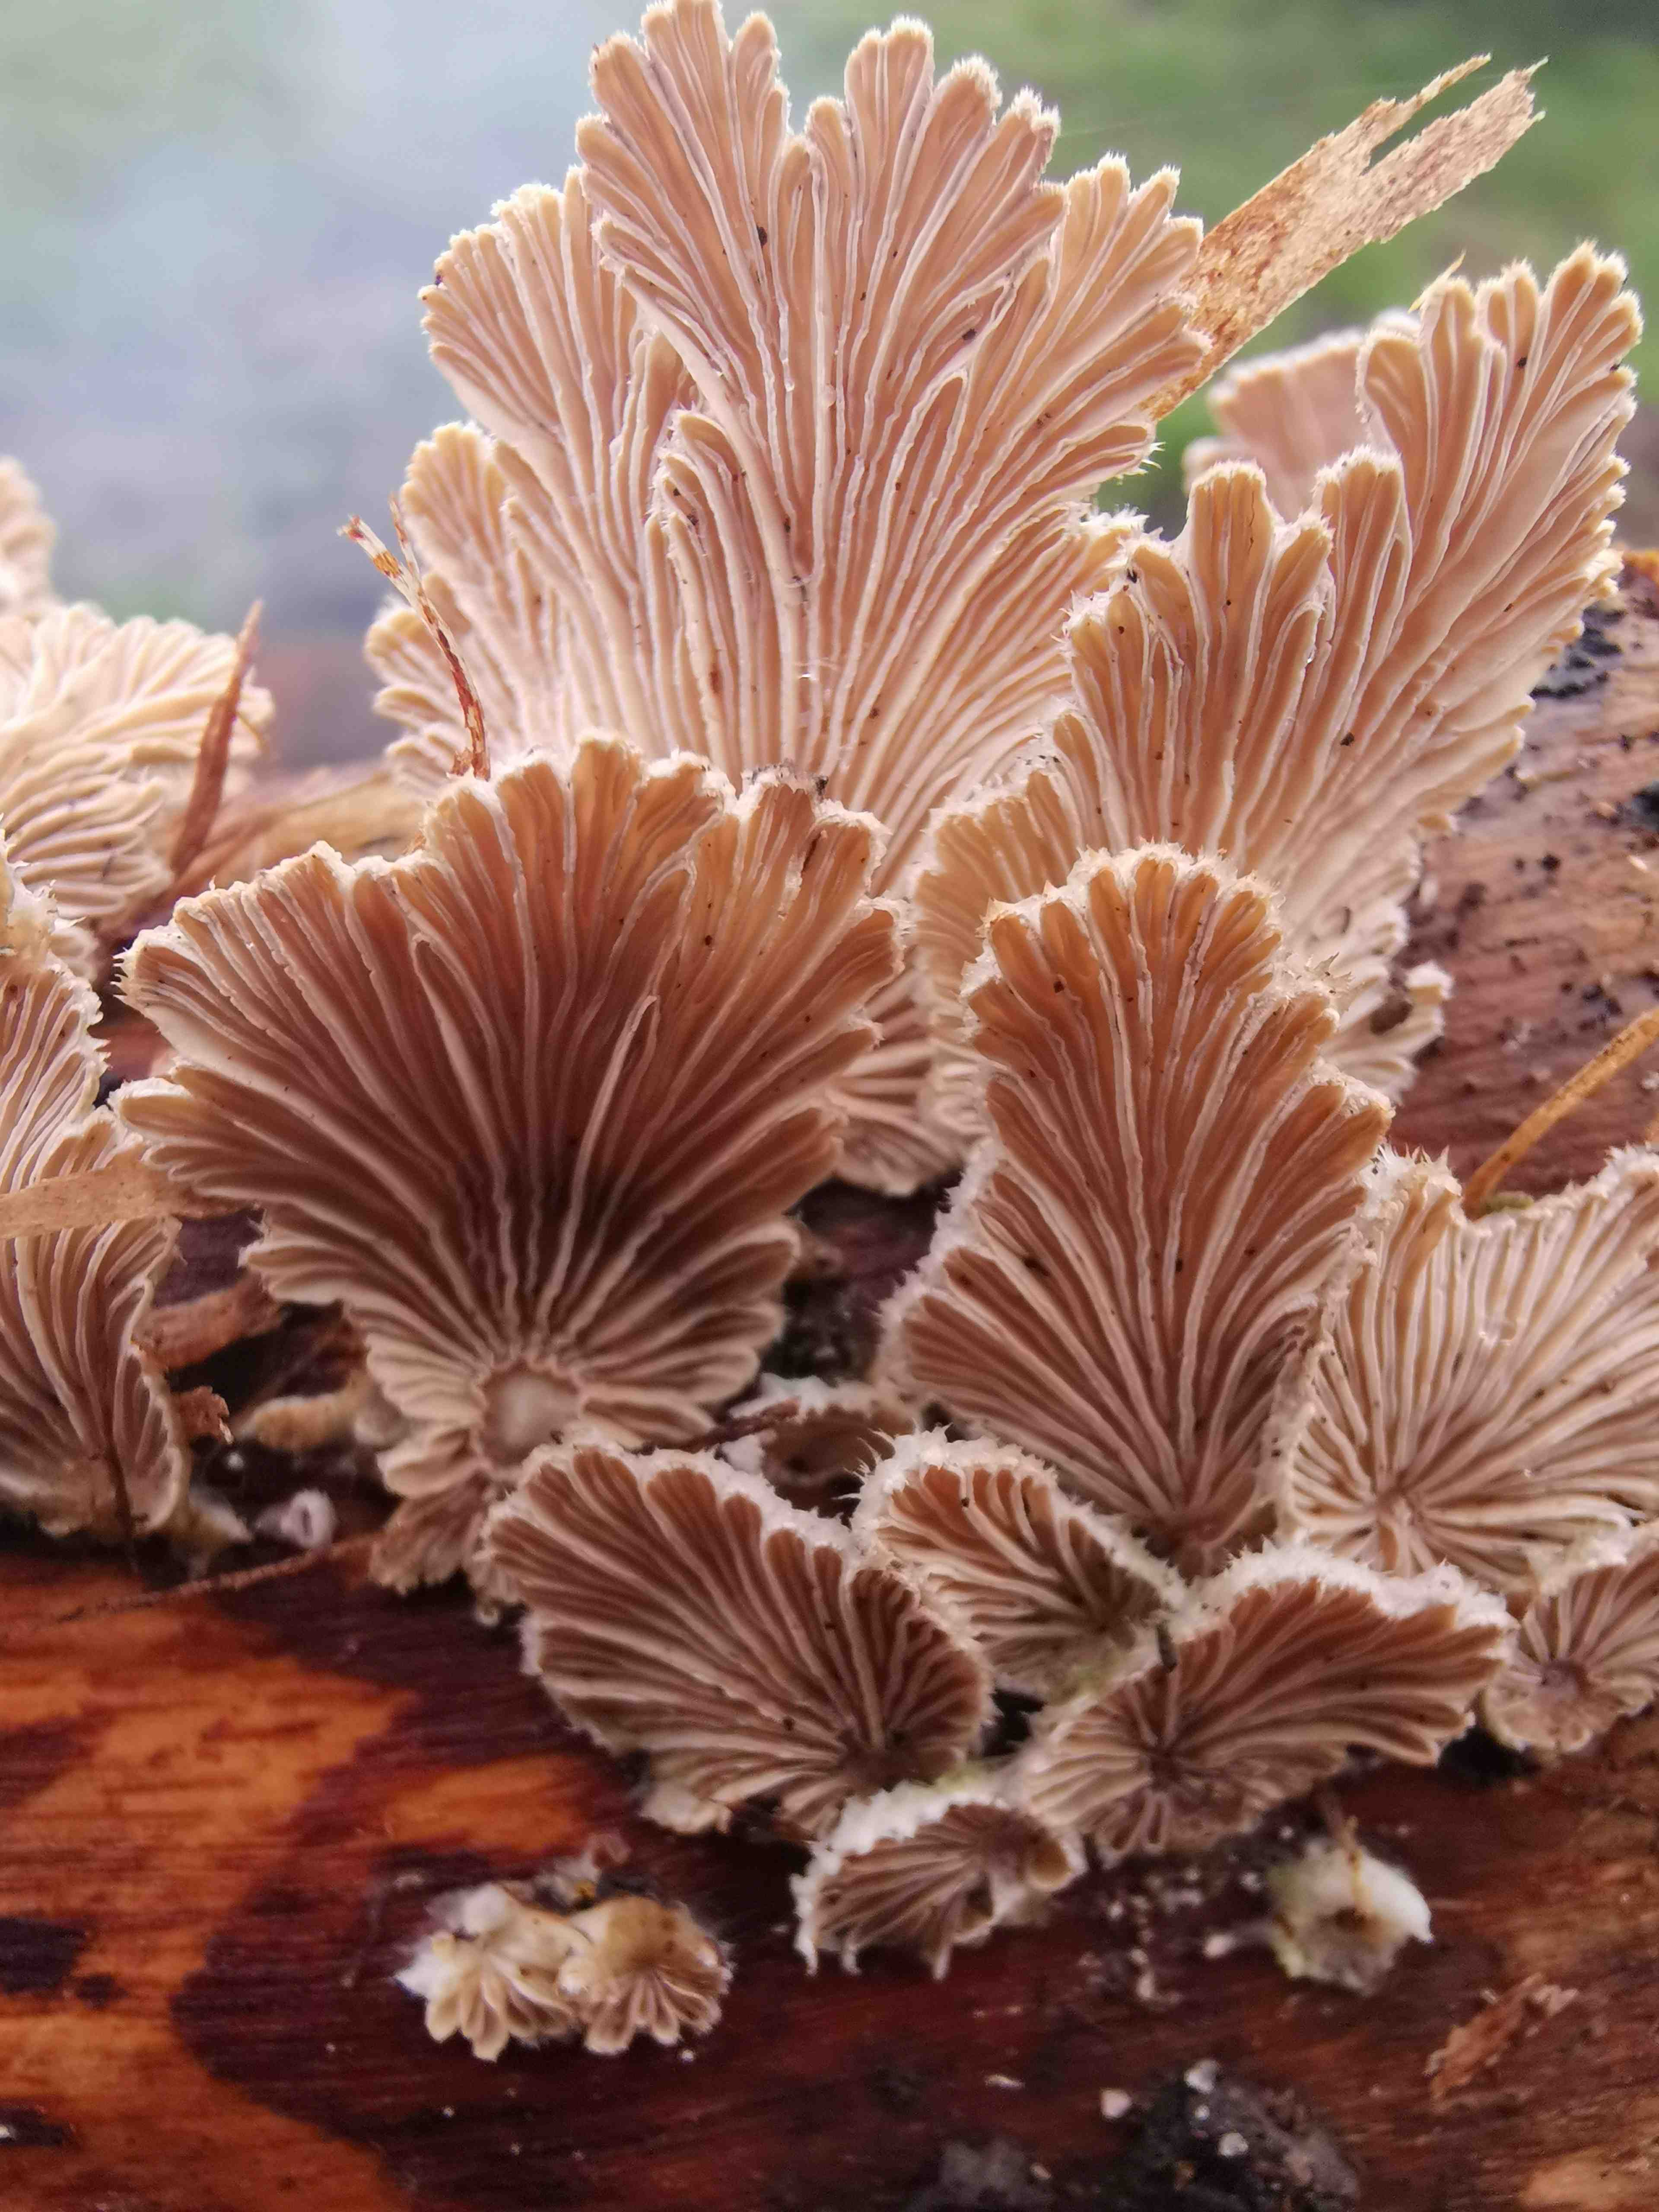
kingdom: Fungi
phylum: Basidiomycota
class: Agaricomycetes
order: Agaricales
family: Schizophyllaceae
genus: Schizophyllum
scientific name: Schizophyllum commune
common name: kløvblad
